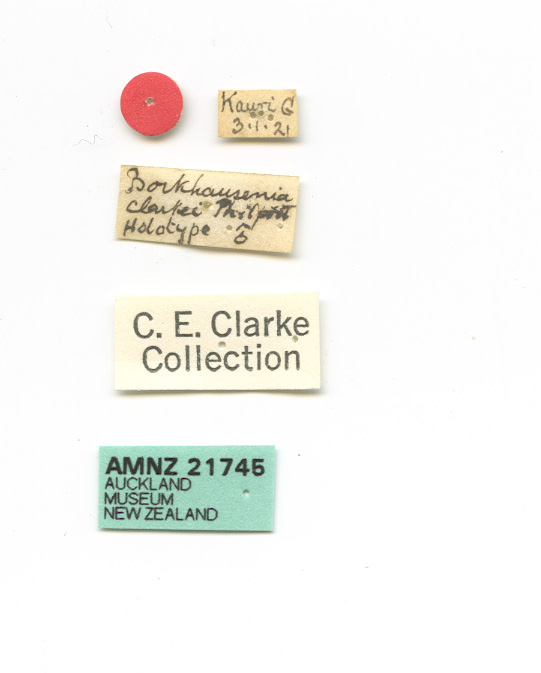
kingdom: Animalia
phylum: Arthropoda
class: Insecta
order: Lepidoptera
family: Oecophoridae
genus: Tingena
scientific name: Tingena clarkei
